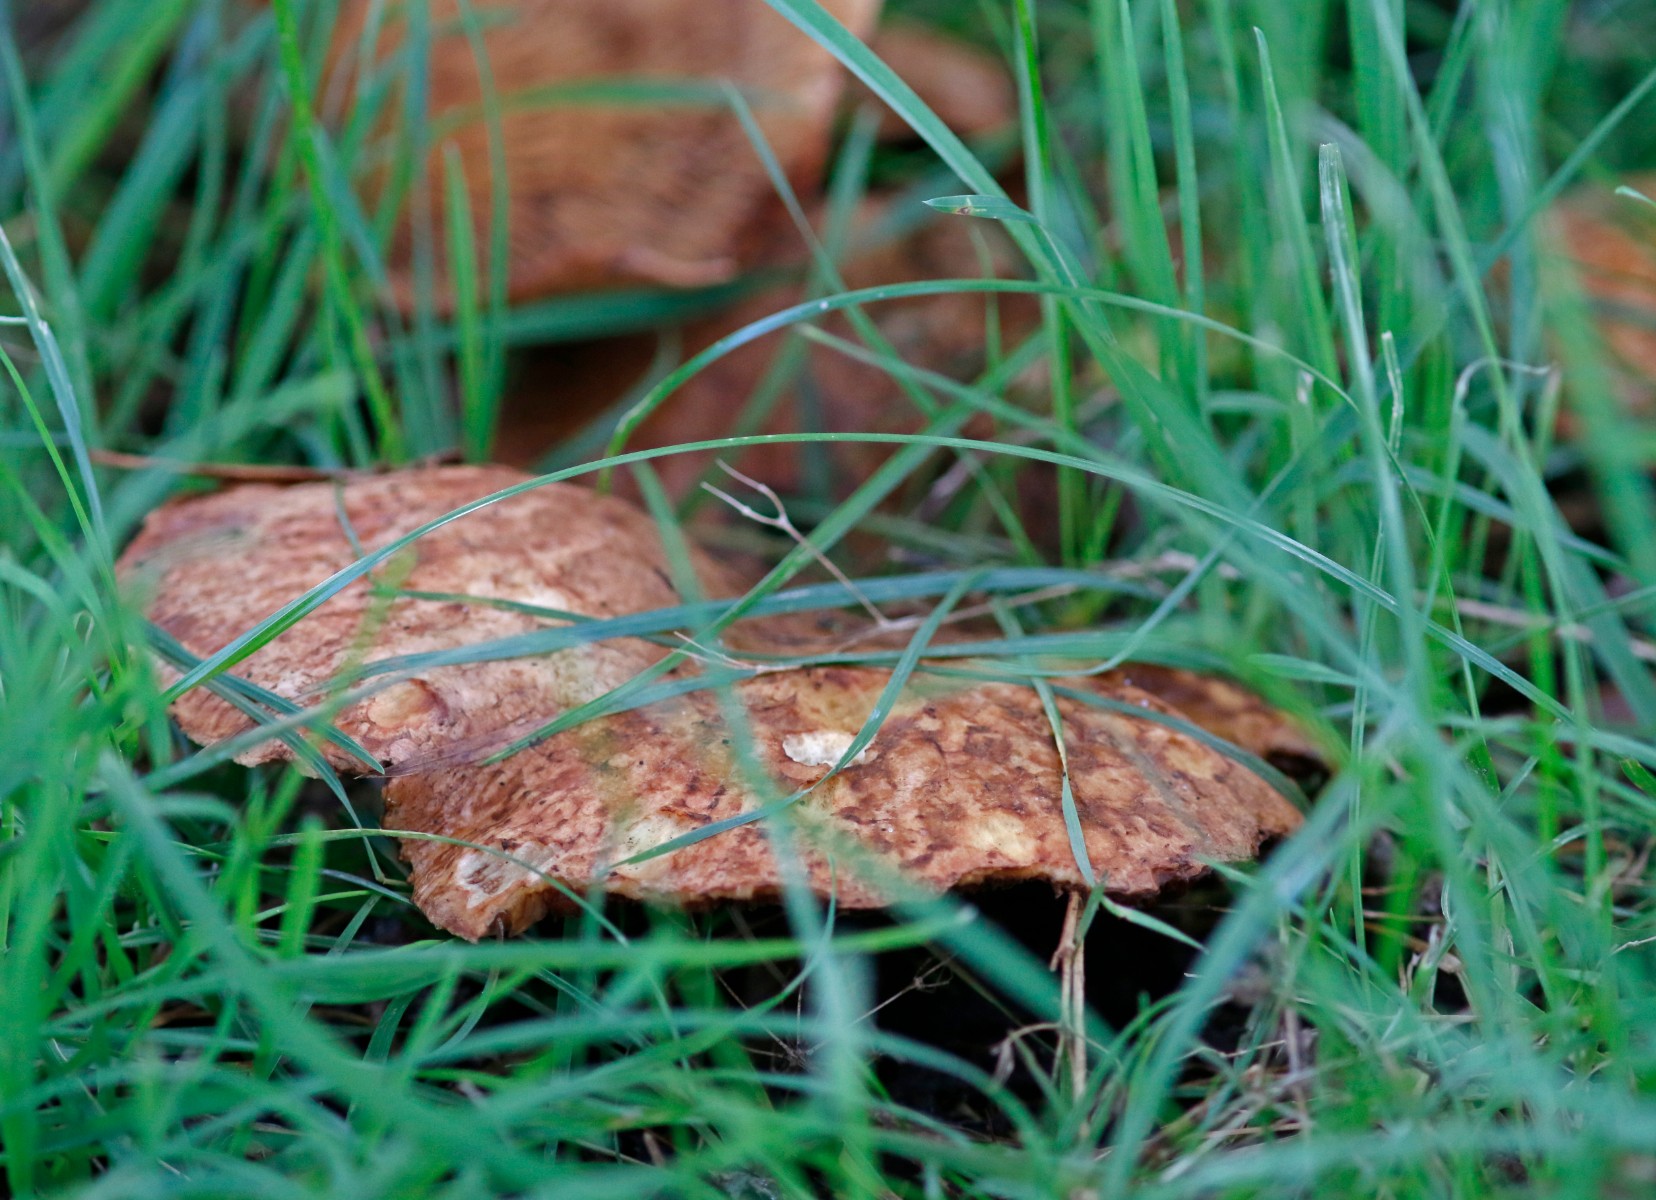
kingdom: Fungi
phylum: Basidiomycota
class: Agaricomycetes
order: Boletales
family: Paxillaceae
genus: Paxillus
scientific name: Paxillus rubicundulus
